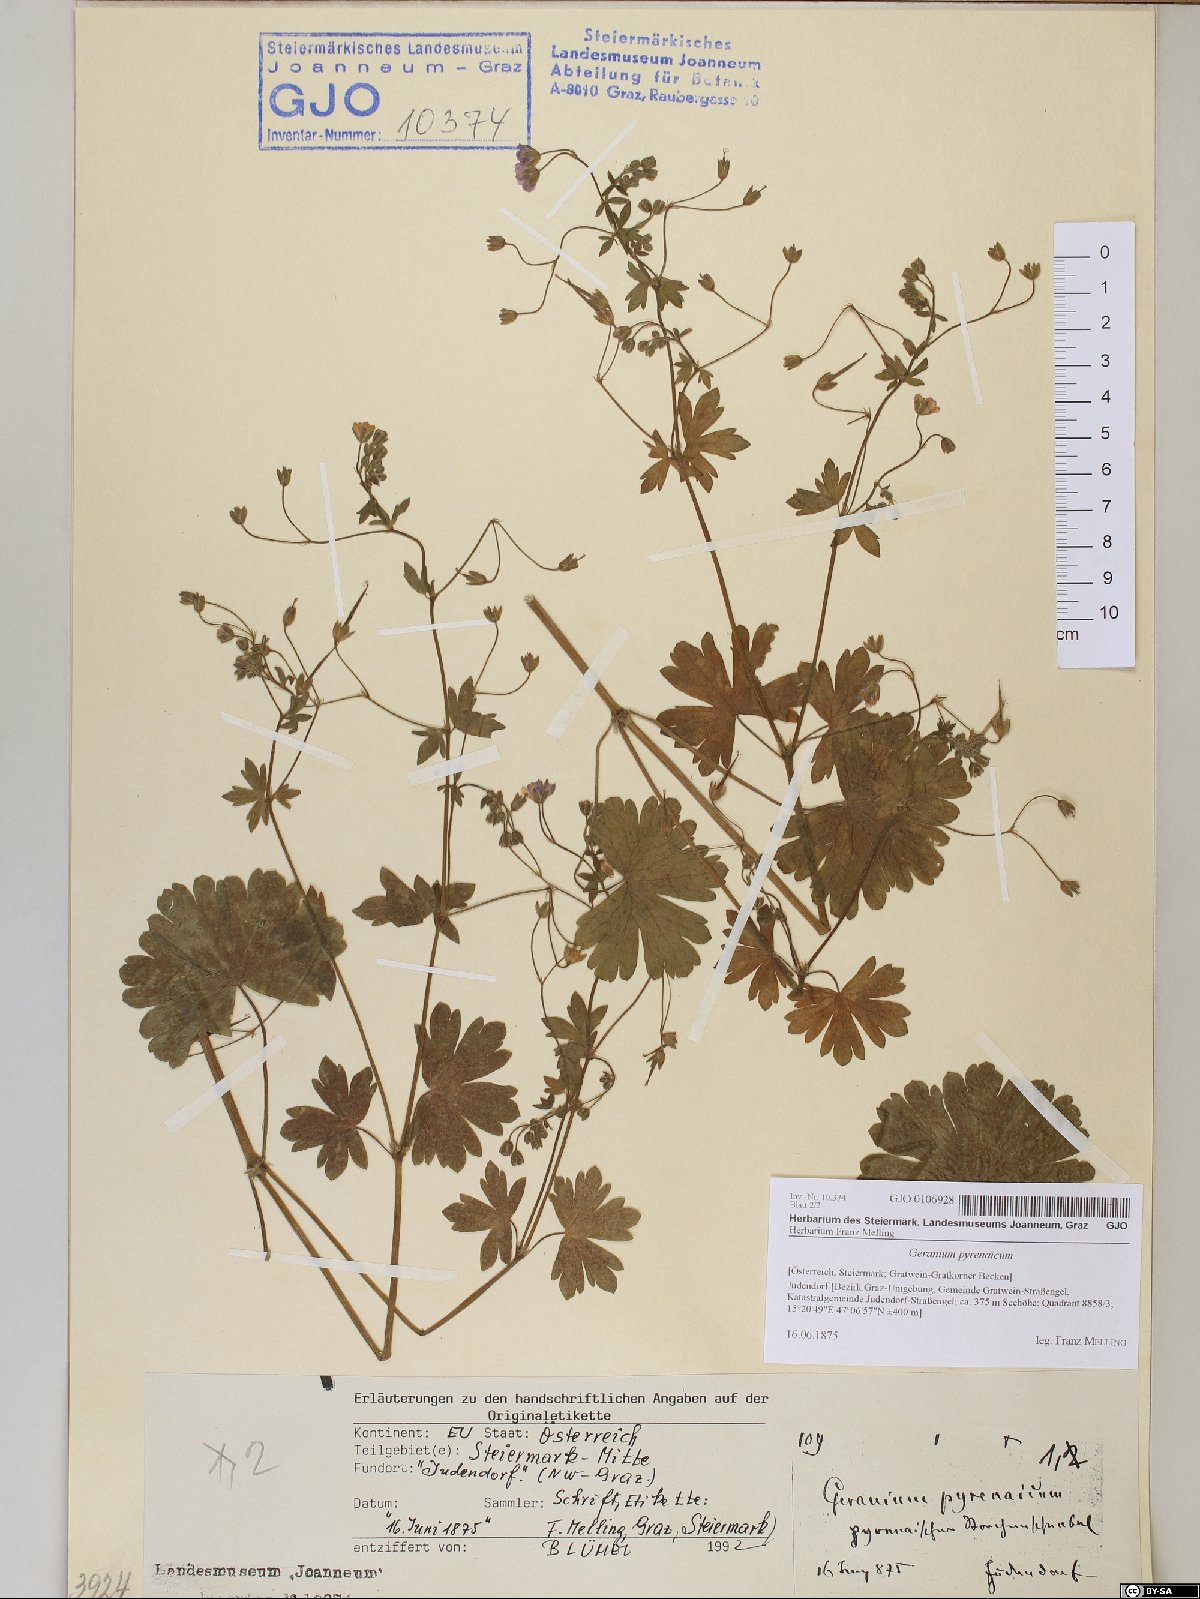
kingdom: Plantae
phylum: Tracheophyta
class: Magnoliopsida
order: Geraniales
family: Geraniaceae
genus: Geranium
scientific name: Geranium pyrenaicum
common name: Hedgerow crane's-bill
